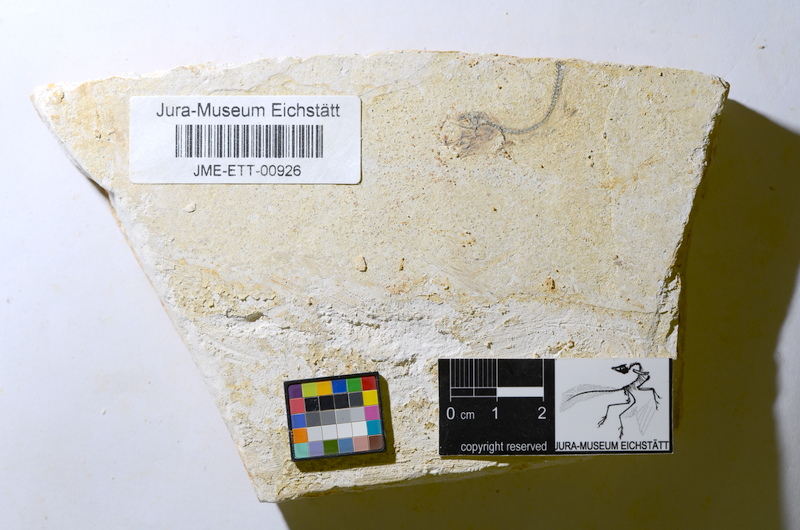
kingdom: Animalia
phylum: Chordata
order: Salmoniformes
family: Orthogonikleithridae
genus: Orthogonikleithrus
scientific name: Orthogonikleithrus hoelli
